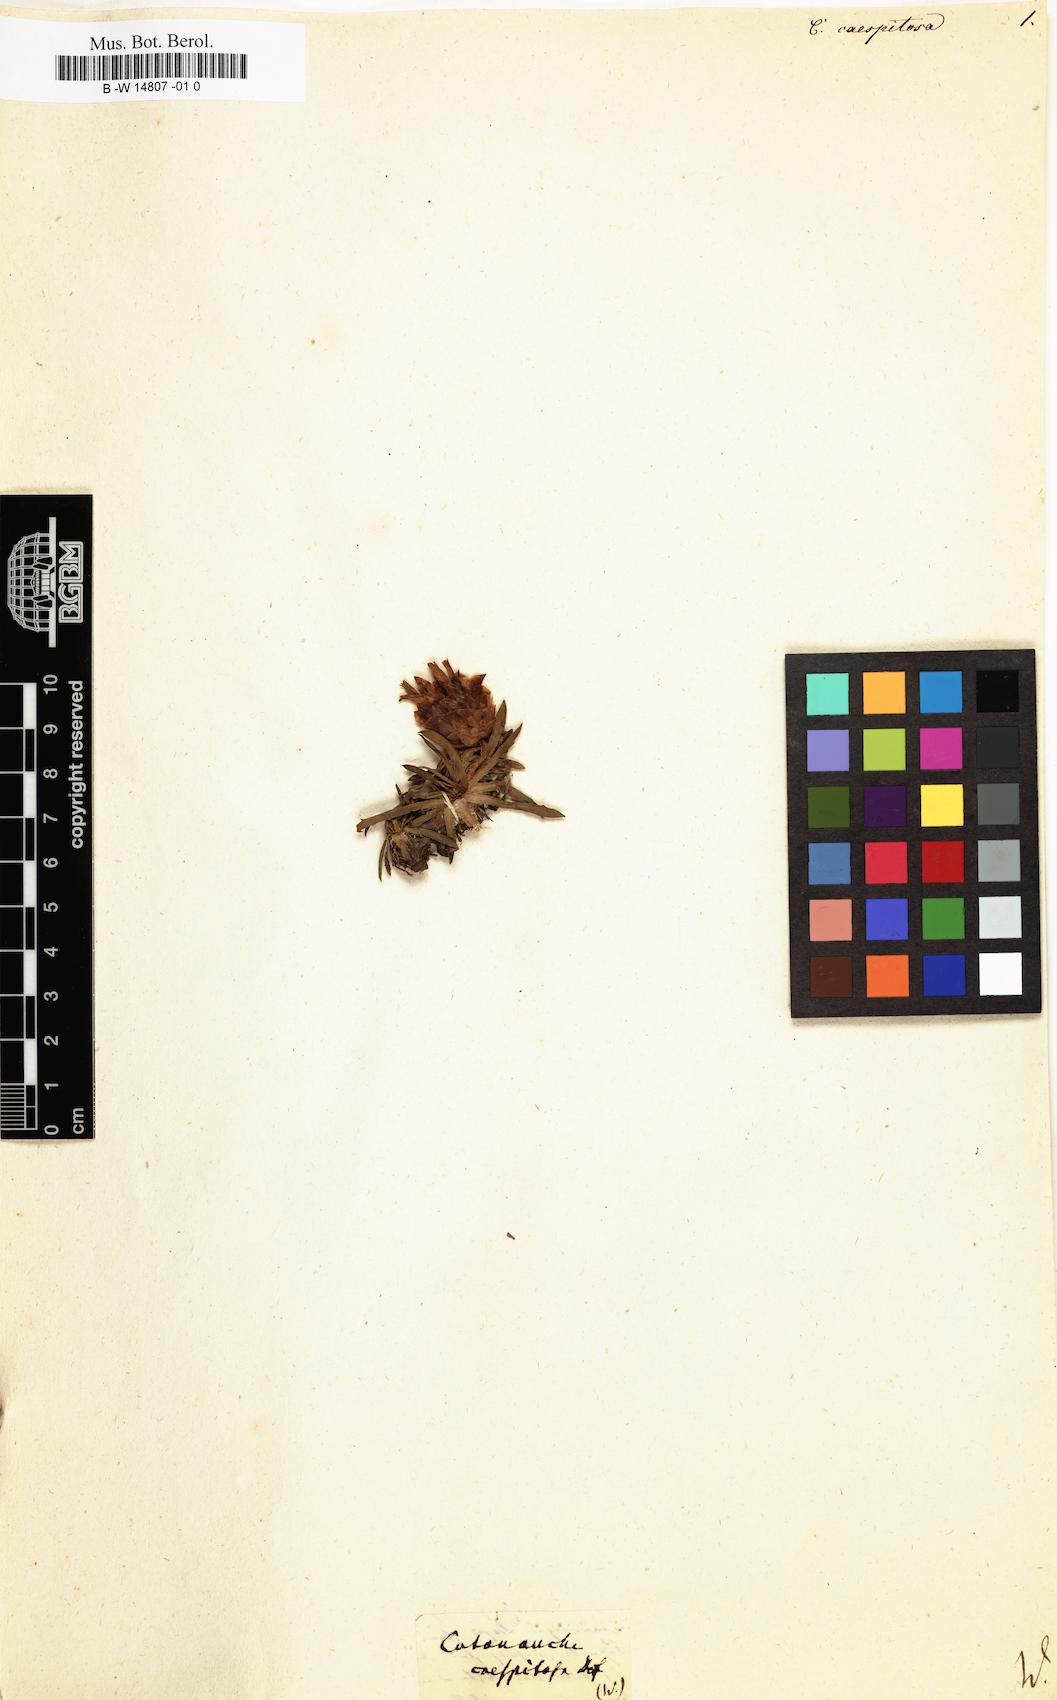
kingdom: Plantae
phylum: Tracheophyta
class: Magnoliopsida
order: Asterales
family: Asteraceae
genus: Catananche
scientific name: Catananche caespitosa
